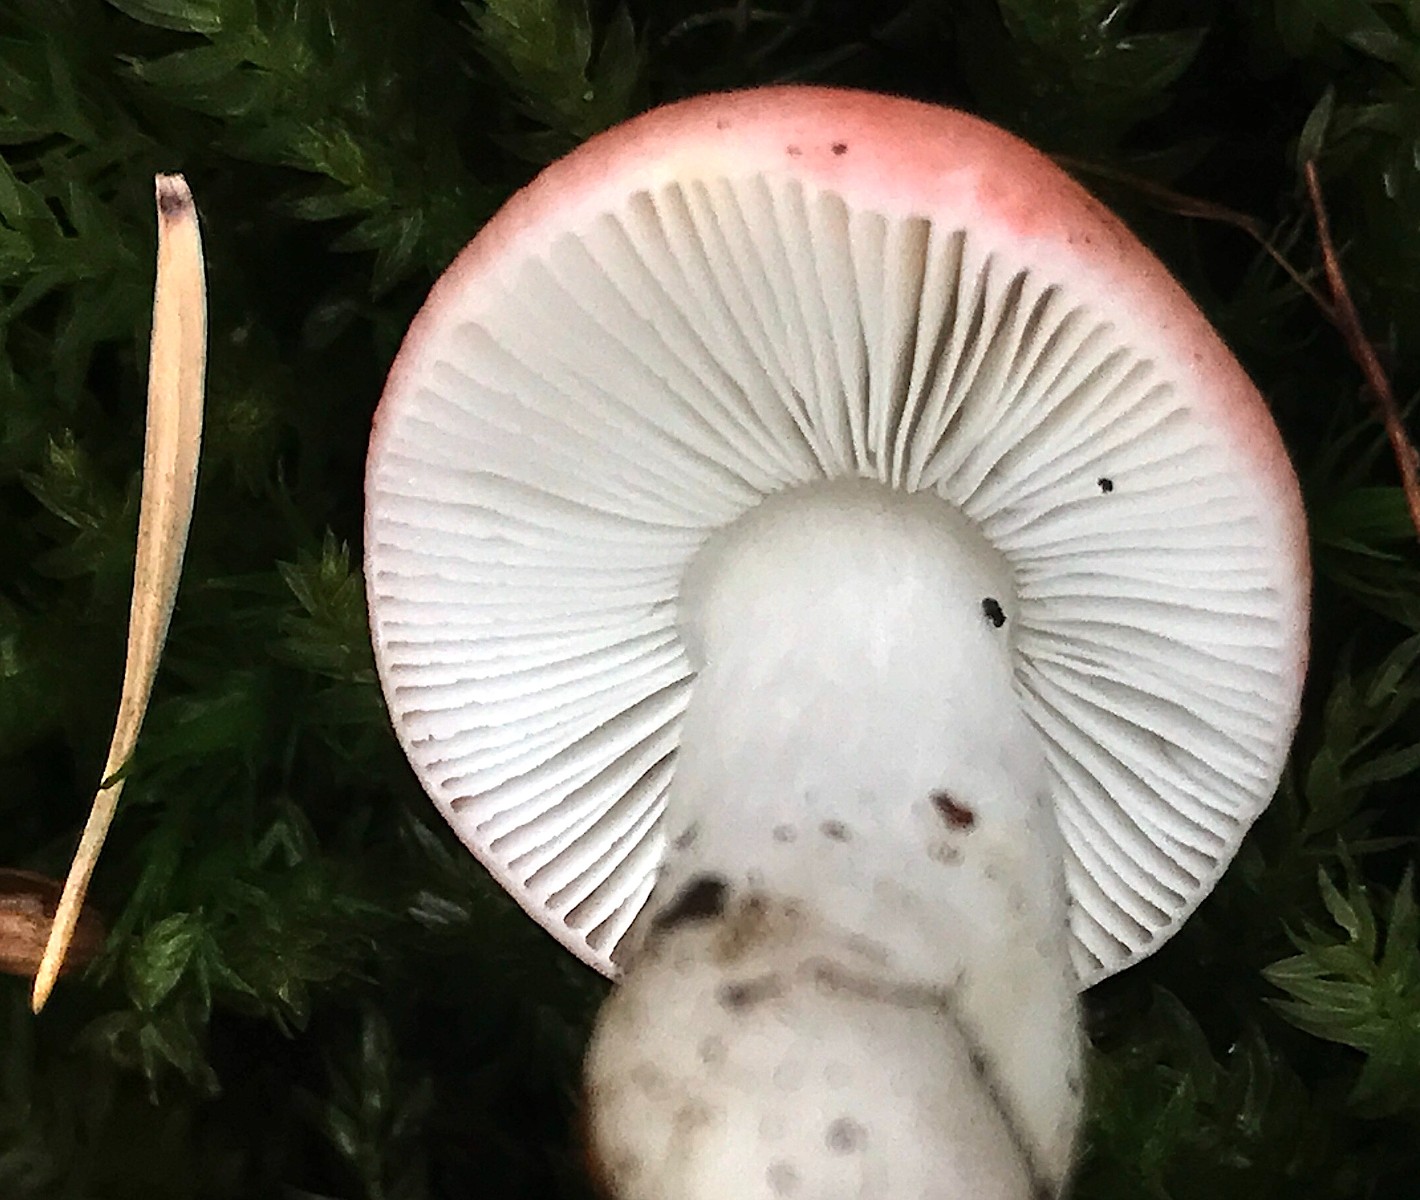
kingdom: Fungi
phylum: Basidiomycota
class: Agaricomycetes
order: Russulales
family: Russulaceae
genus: Russula
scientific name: Russula nobilis
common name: lille gift-skørhat
